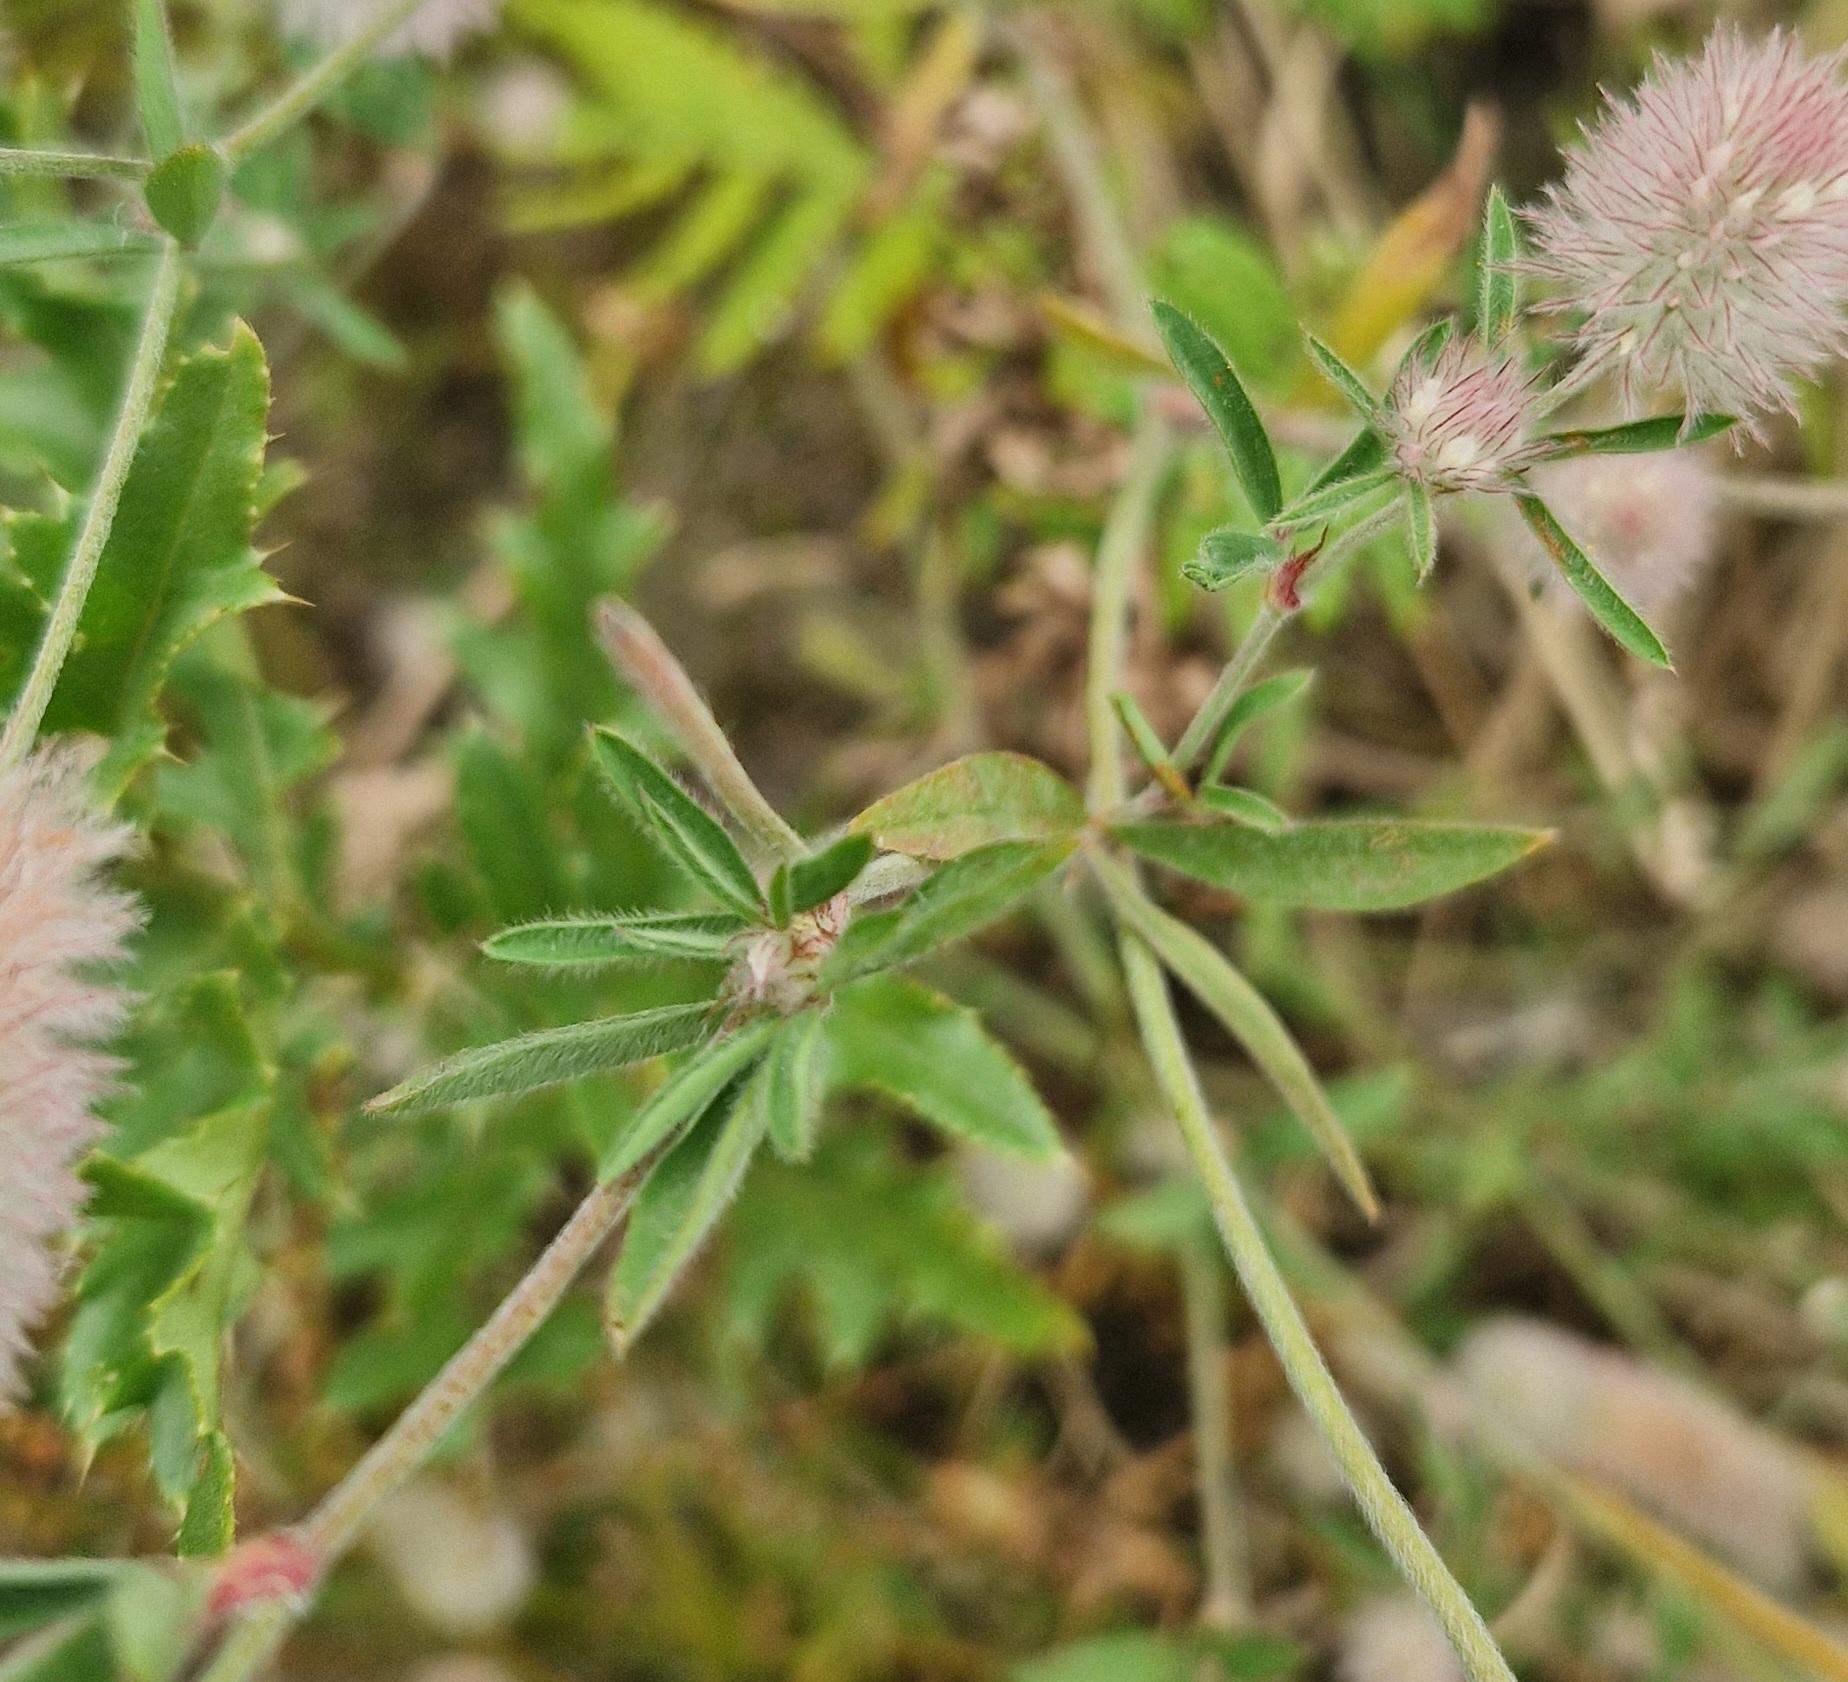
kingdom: Plantae
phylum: Tracheophyta
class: Magnoliopsida
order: Fabales
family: Fabaceae
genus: Trifolium
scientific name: Trifolium arvense
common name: Hare-kløver
